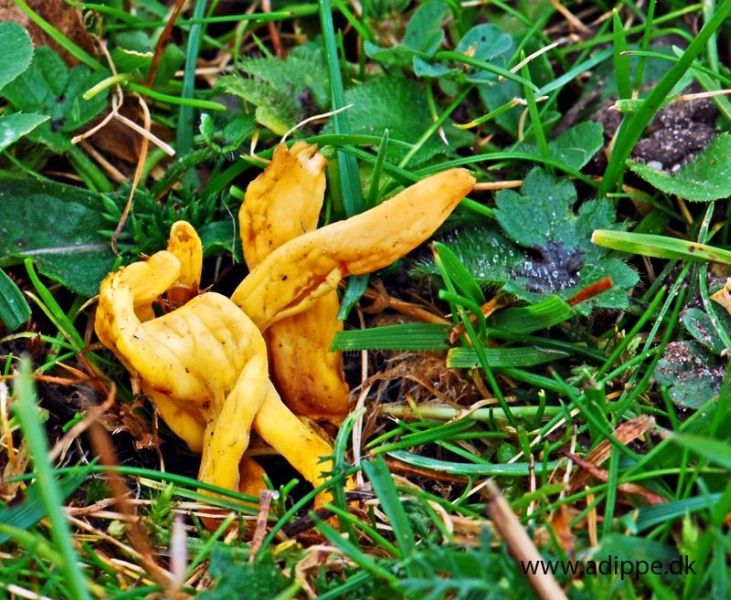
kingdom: Fungi
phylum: Basidiomycota
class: Agaricomycetes
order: Agaricales
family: Clavariaceae
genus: Clavulinopsis
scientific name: Clavulinopsis fusiformis
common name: tenformet køllesvamp
